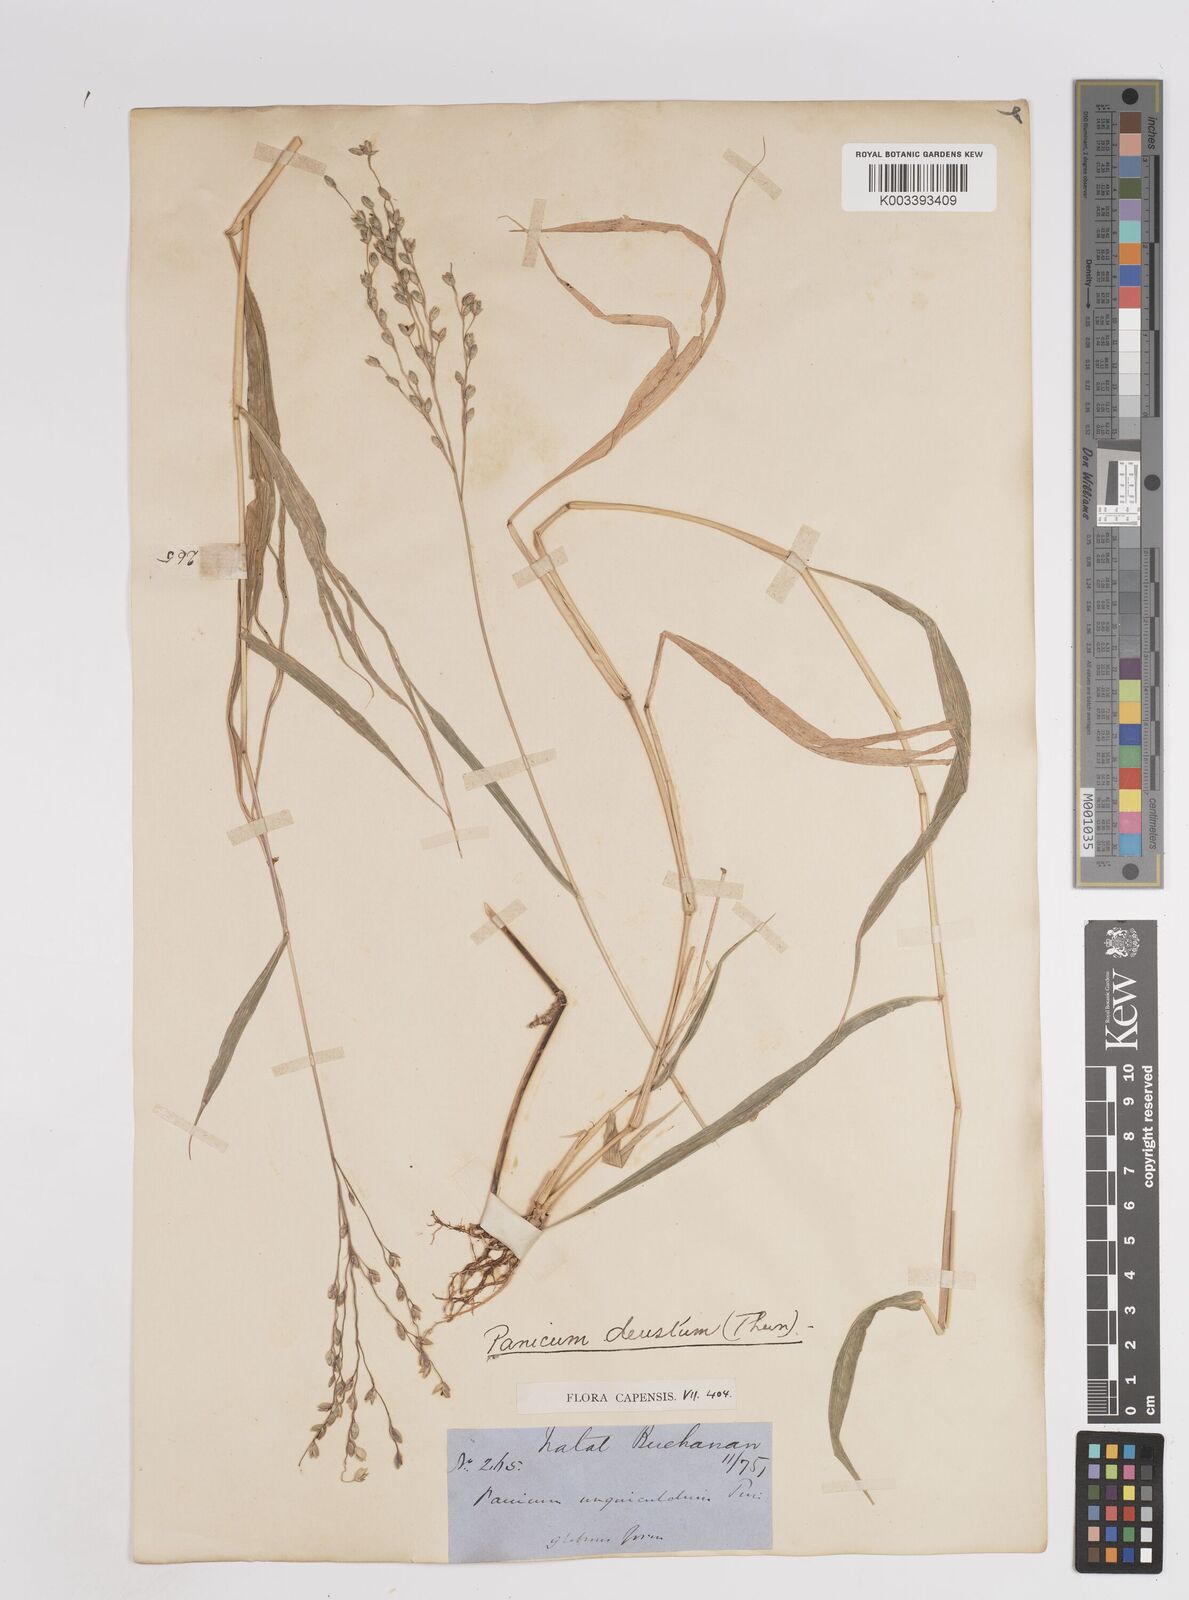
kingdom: Plantae
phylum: Tracheophyta
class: Liliopsida
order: Poales
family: Poaceae
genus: Panicum
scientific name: Panicum deustum
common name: Reed panicum
